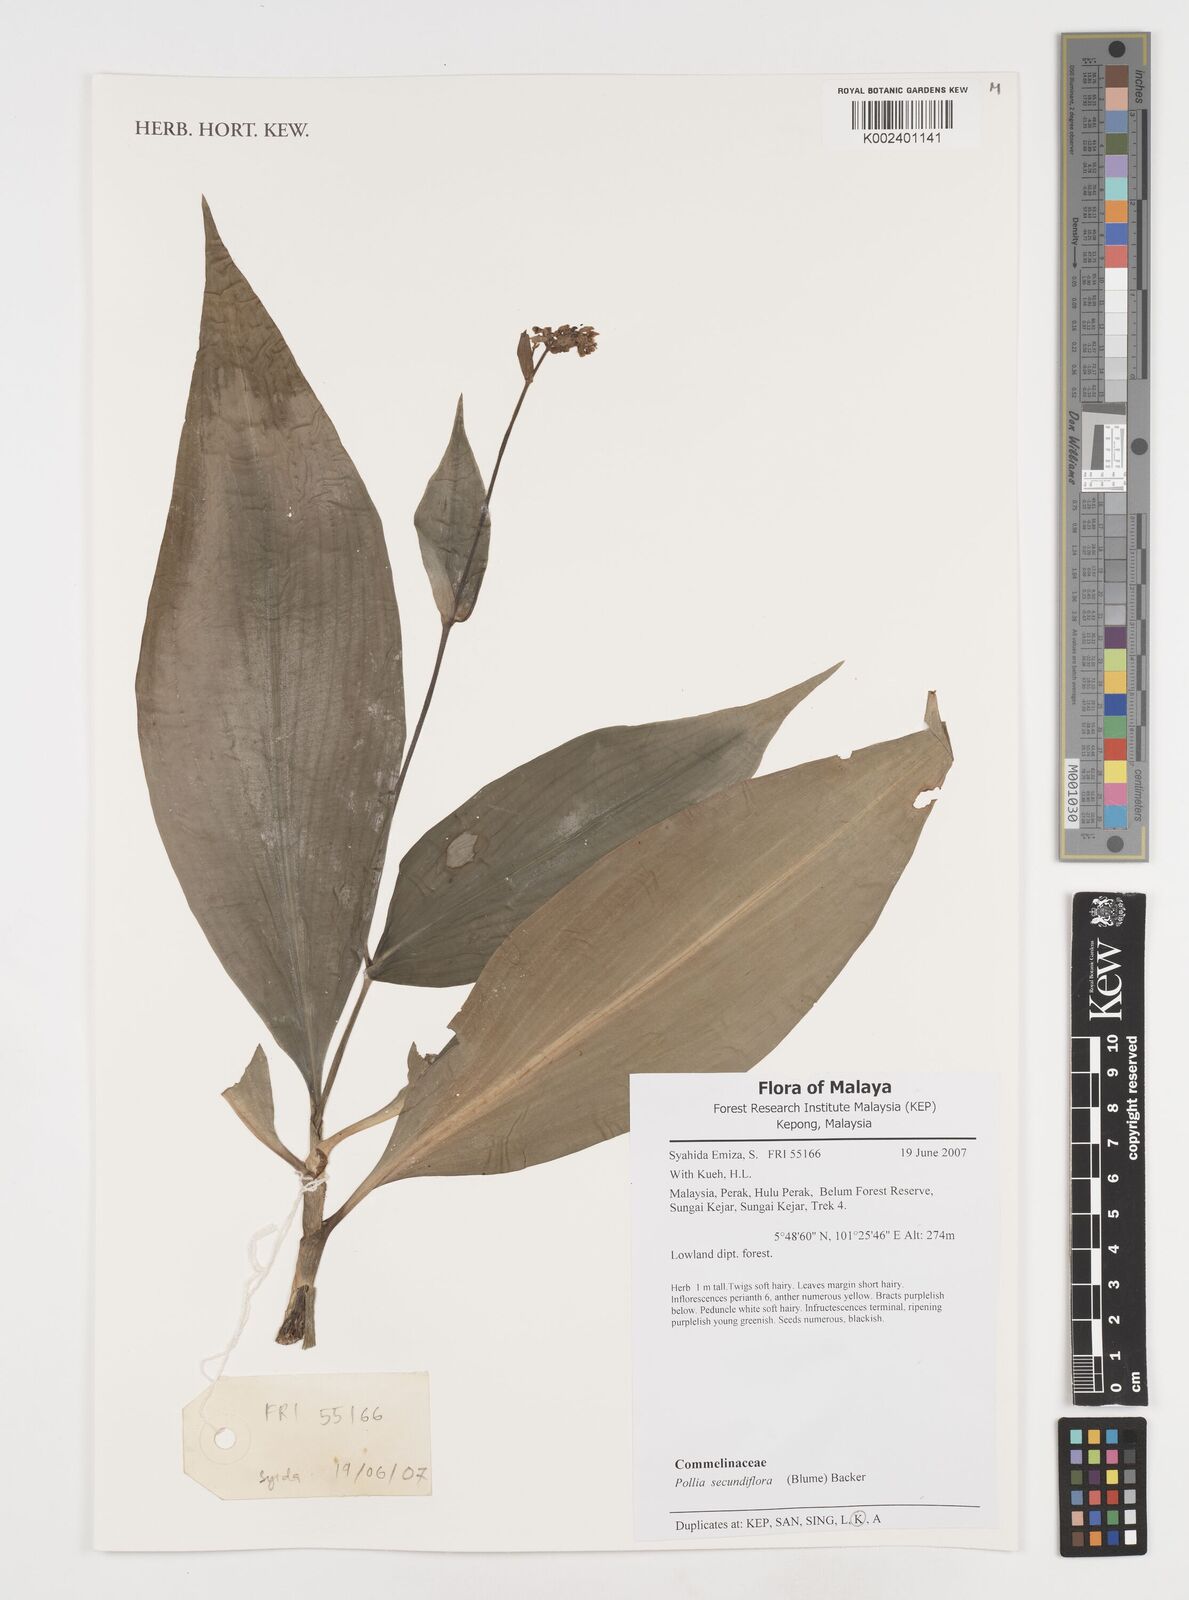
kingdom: Plantae
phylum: Tracheophyta
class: Liliopsida
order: Commelinales
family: Commelinaceae
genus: Pollia
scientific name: Pollia secundiflora
